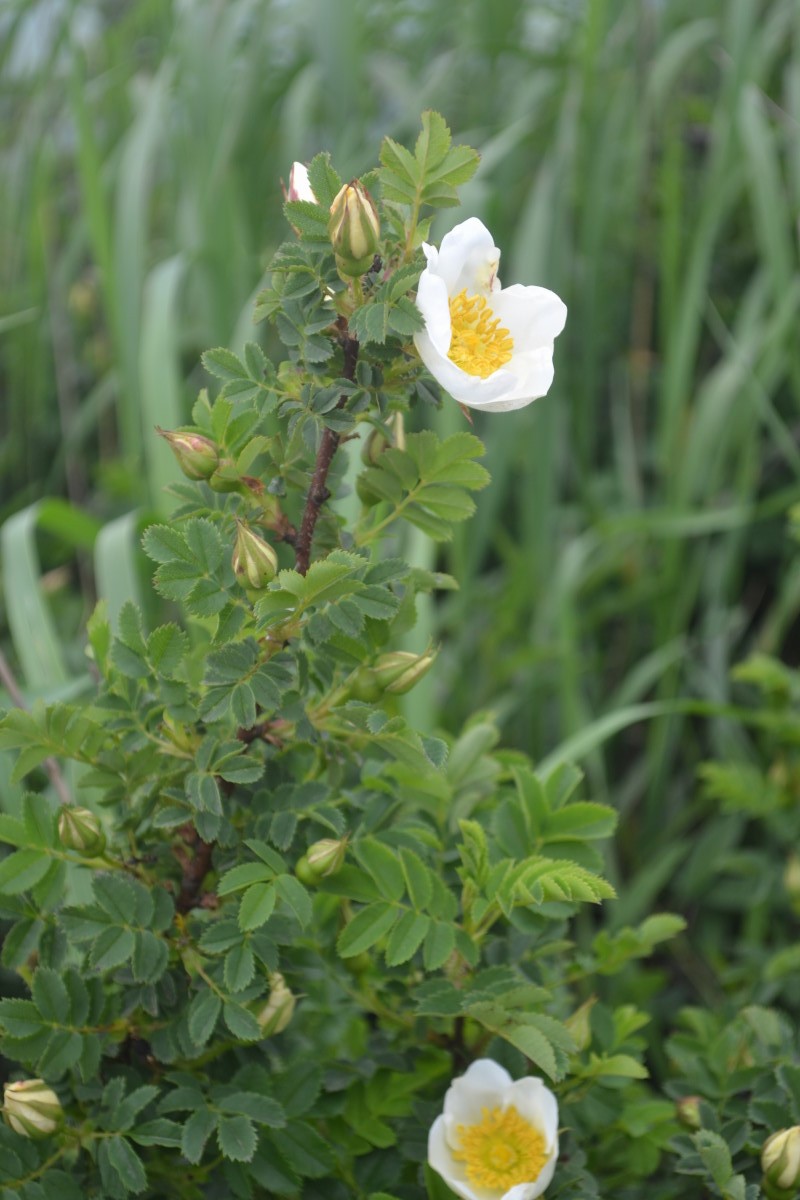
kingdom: Plantae
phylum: Tracheophyta
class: Magnoliopsida
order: Rosales
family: Rosaceae
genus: Rosa
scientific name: Rosa spinosissima
